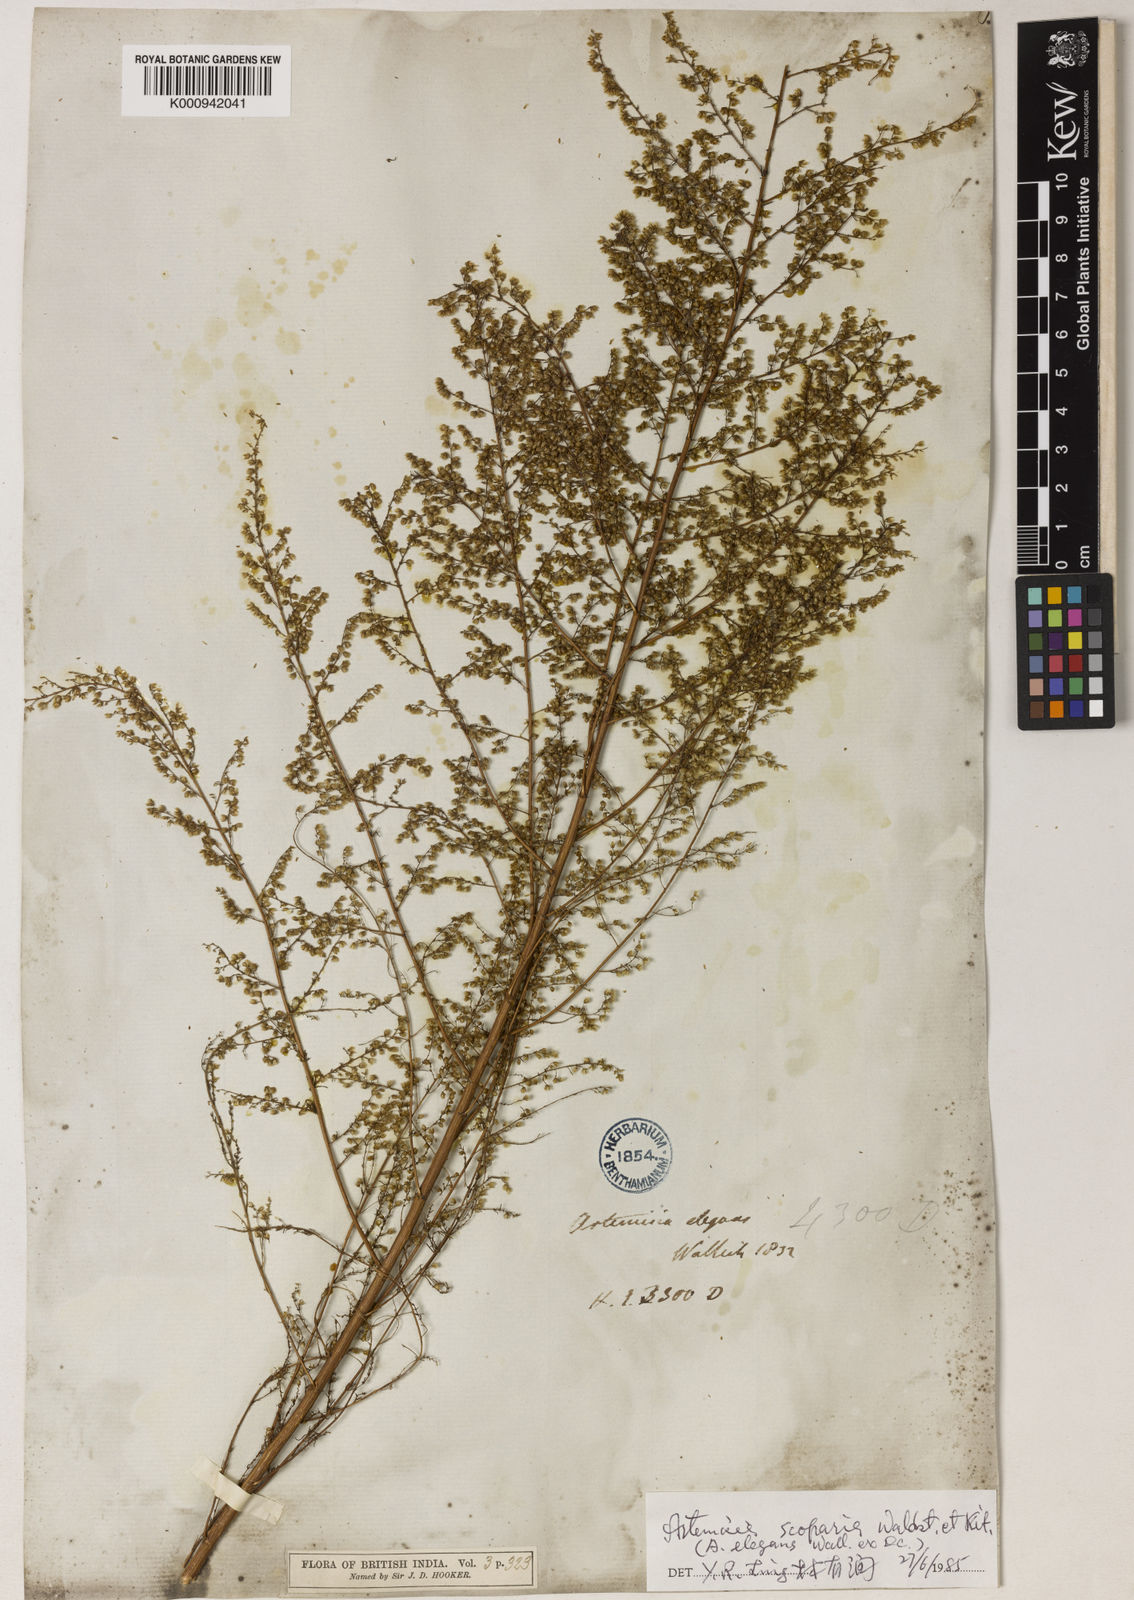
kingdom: Plantae
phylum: Tracheophyta
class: Magnoliopsida
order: Asterales
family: Asteraceae
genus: Artemisia
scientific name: Artemisia scoparia
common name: Redstem wormwood
